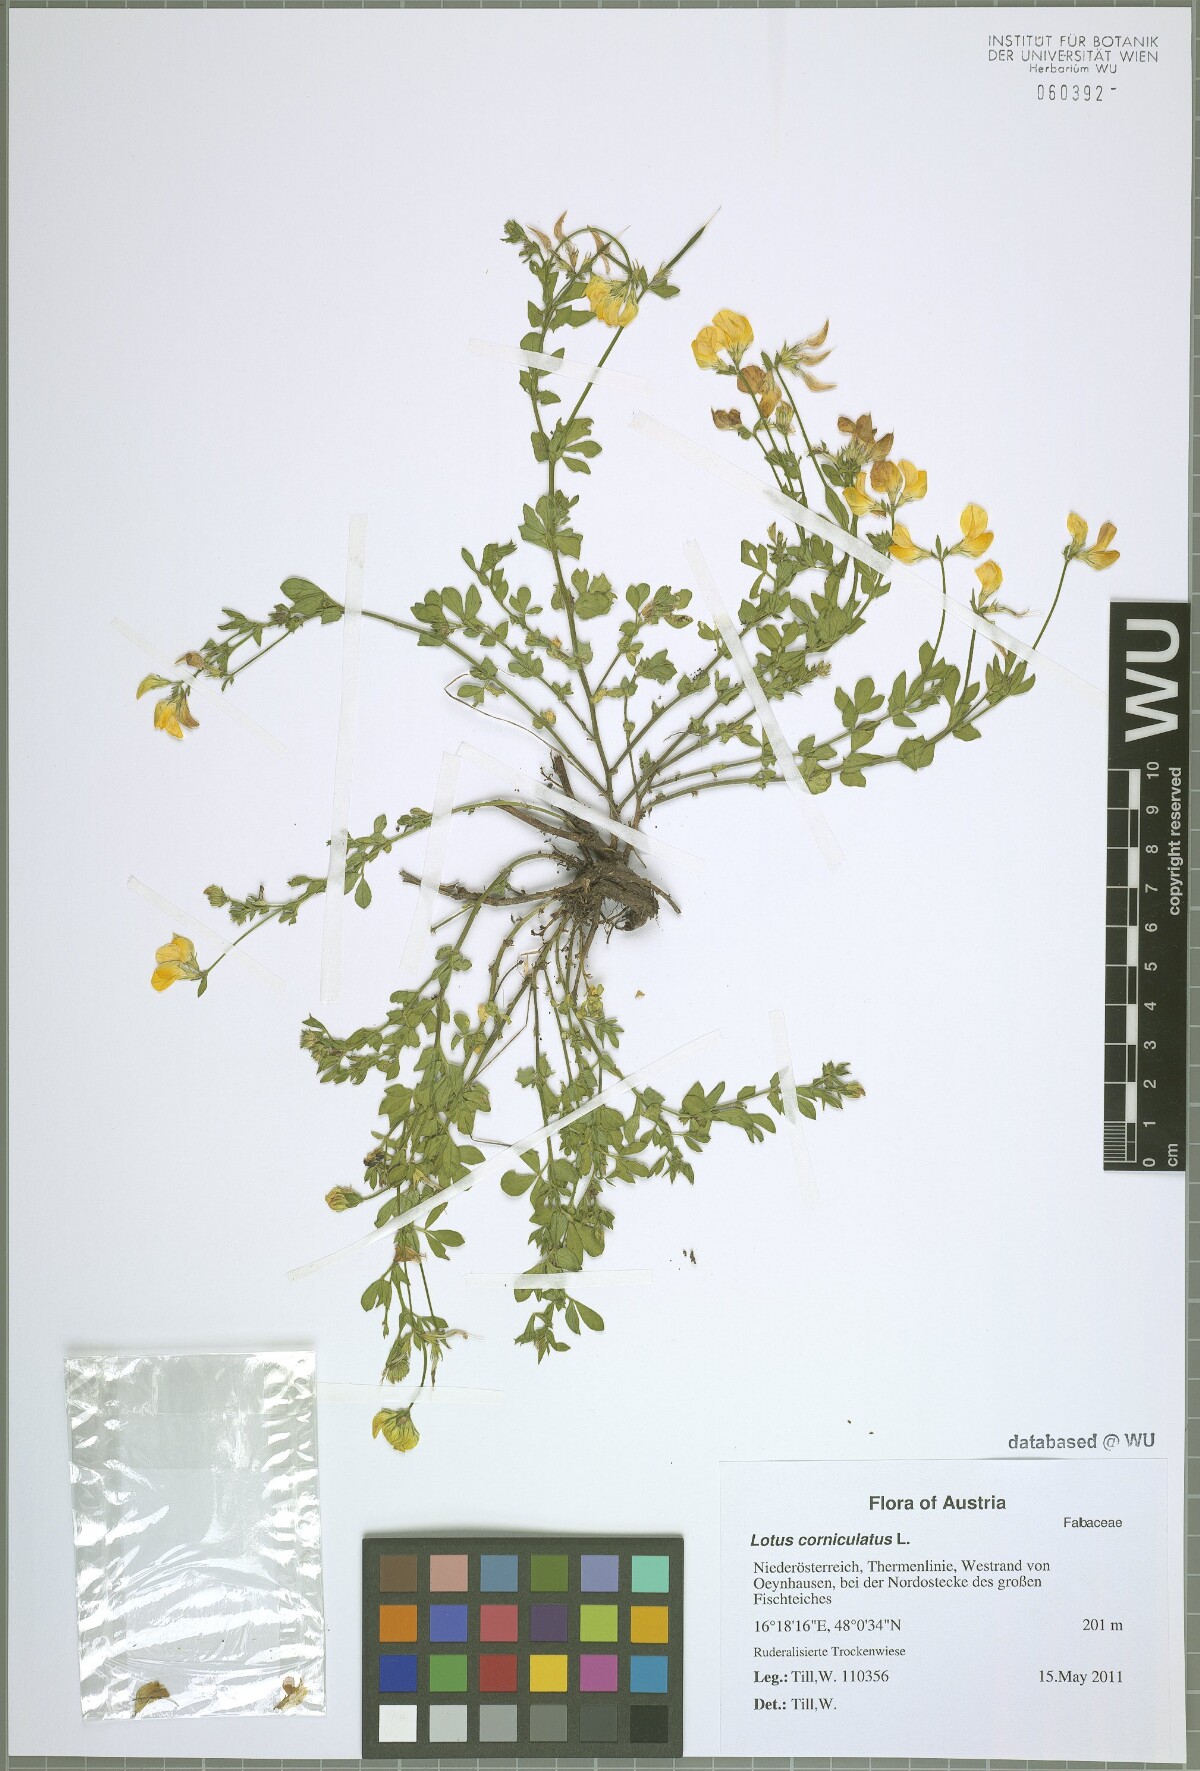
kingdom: Plantae
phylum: Tracheophyta
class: Magnoliopsida
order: Fabales
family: Fabaceae
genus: Lotus
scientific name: Lotus corniculatus
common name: Common bird's-foot-trefoil
